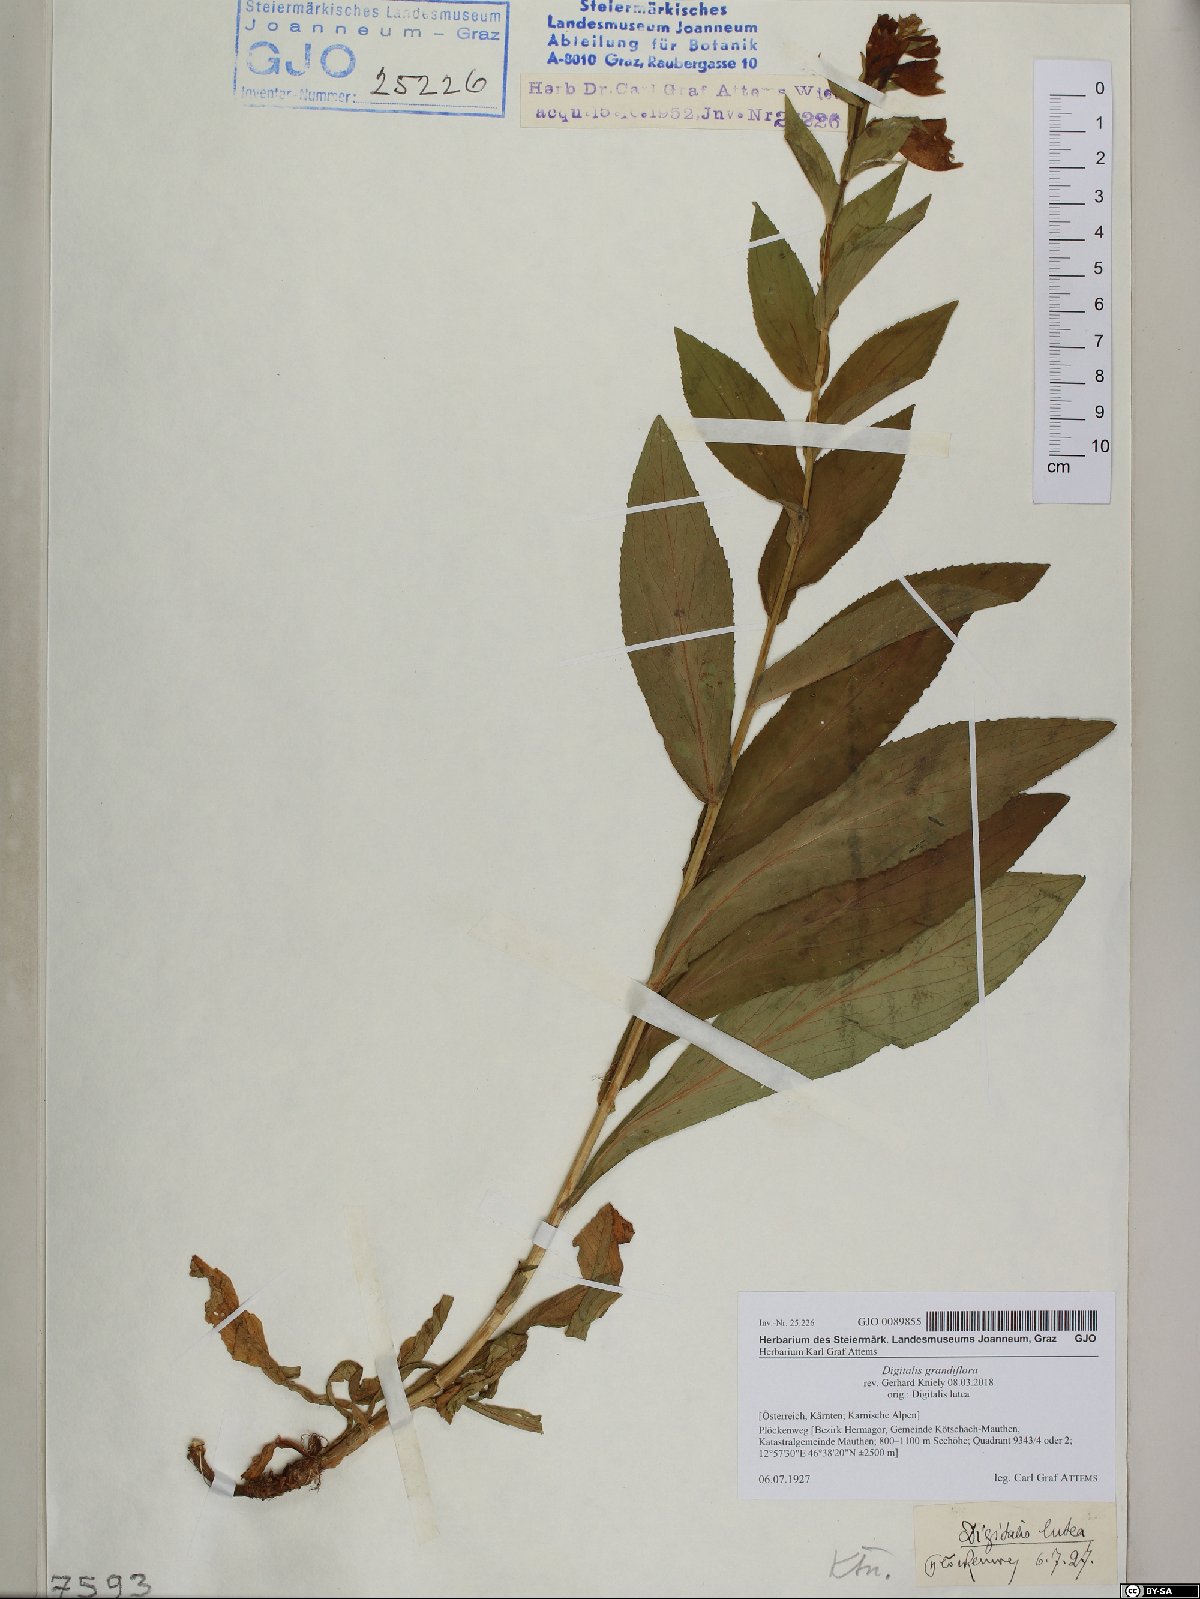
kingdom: Plantae
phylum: Tracheophyta
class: Magnoliopsida
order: Lamiales
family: Plantaginaceae
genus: Digitalis
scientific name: Digitalis grandiflora
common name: Yellow foxglove
